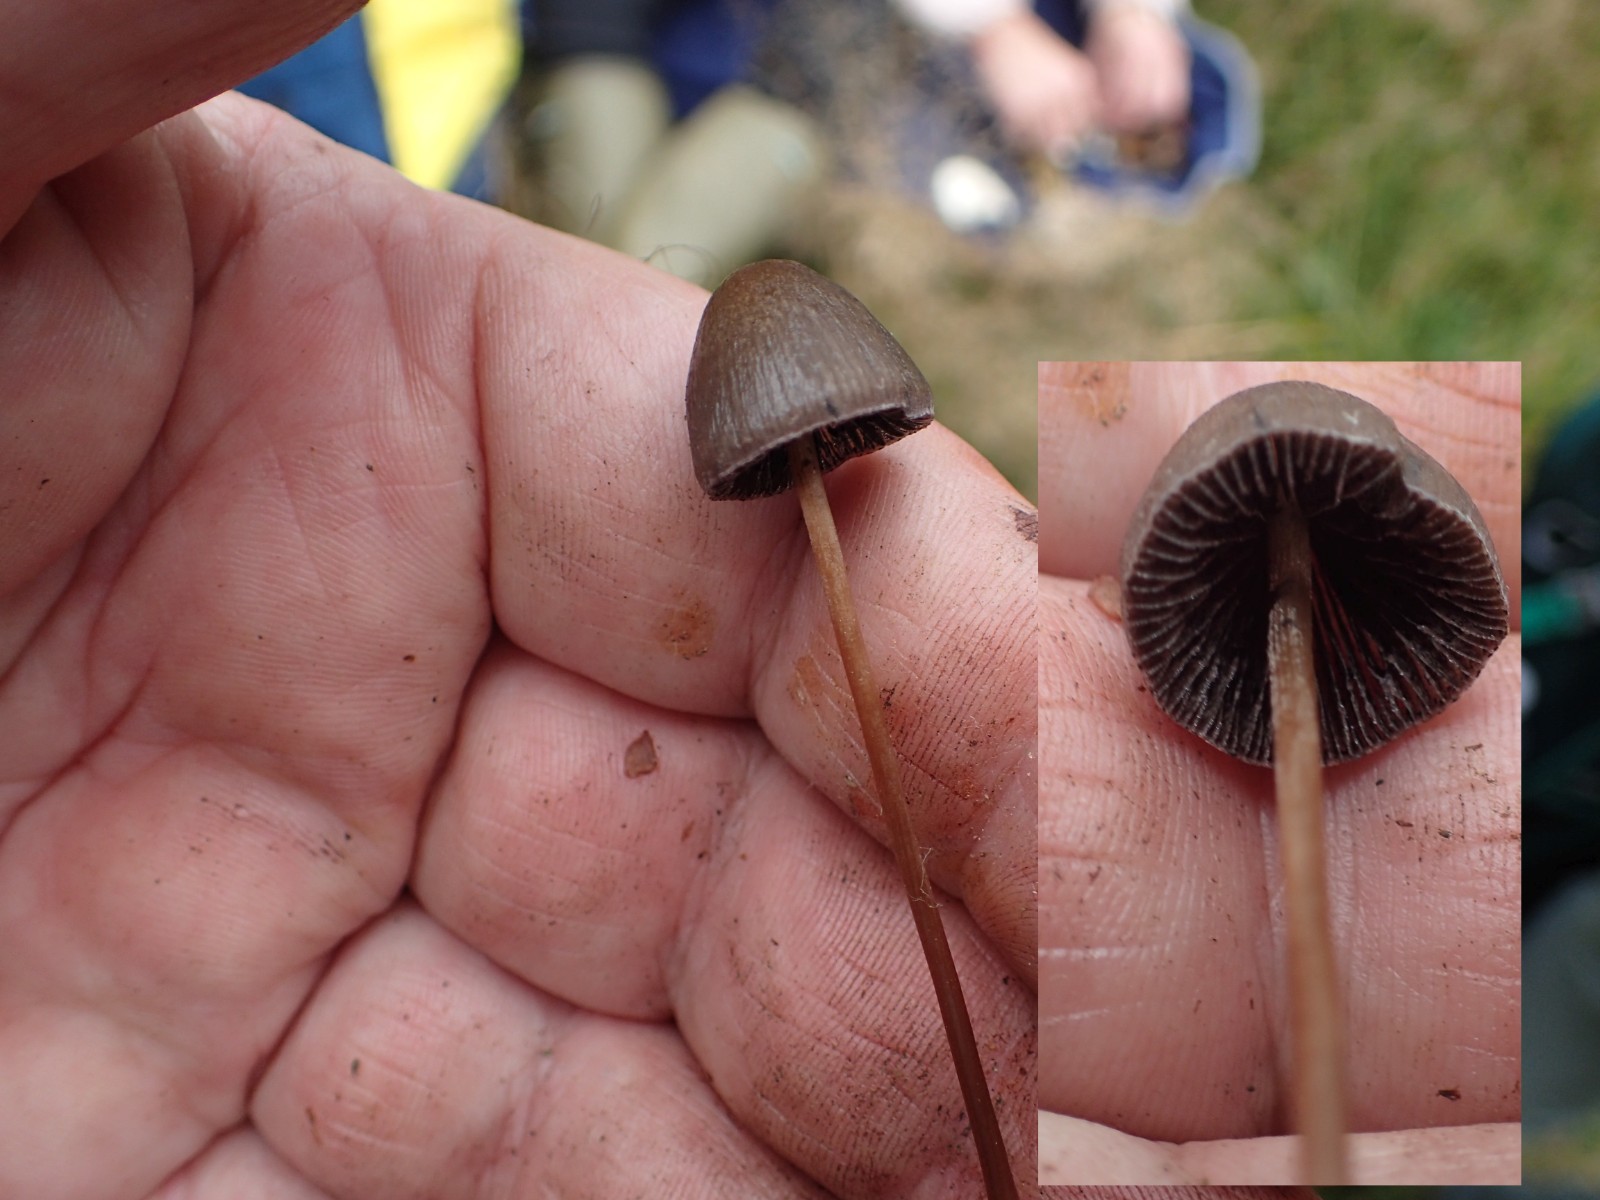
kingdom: Fungi
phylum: Basidiomycota
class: Agaricomycetes
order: Agaricales
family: Bolbitiaceae
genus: Panaeolus
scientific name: Panaeolus acuminatus
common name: høj glanshat
